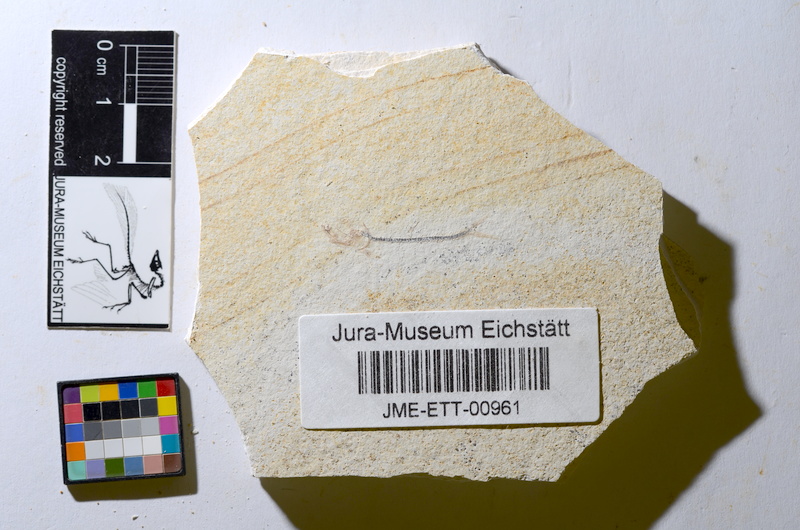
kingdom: Animalia
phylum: Chordata
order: Salmoniformes
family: Orthogonikleithridae
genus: Orthogonikleithrus
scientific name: Orthogonikleithrus hoelli
